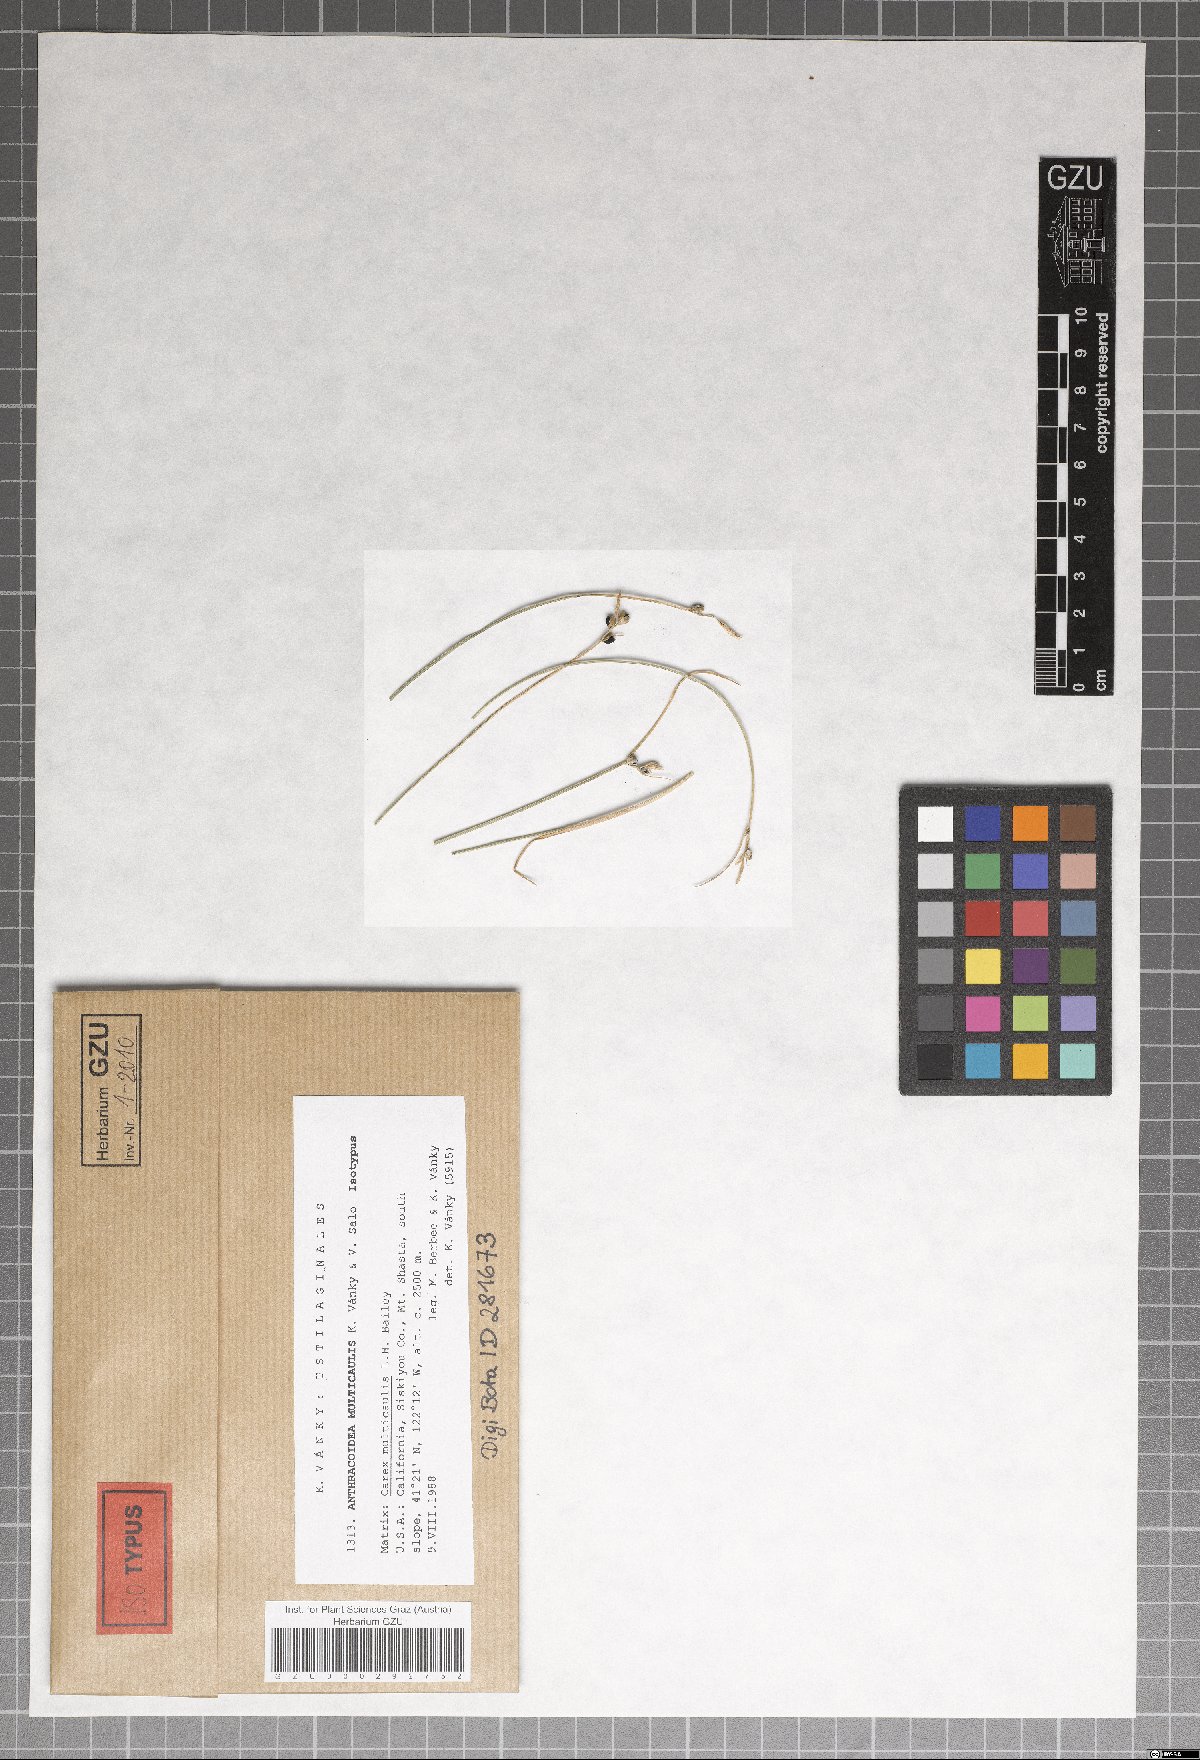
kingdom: Fungi
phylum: Basidiomycota
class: Ustilaginomycetes
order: Ustilaginales
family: Anthracoideaceae
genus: Anthracoidea
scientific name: Anthracoidea multicaulis
